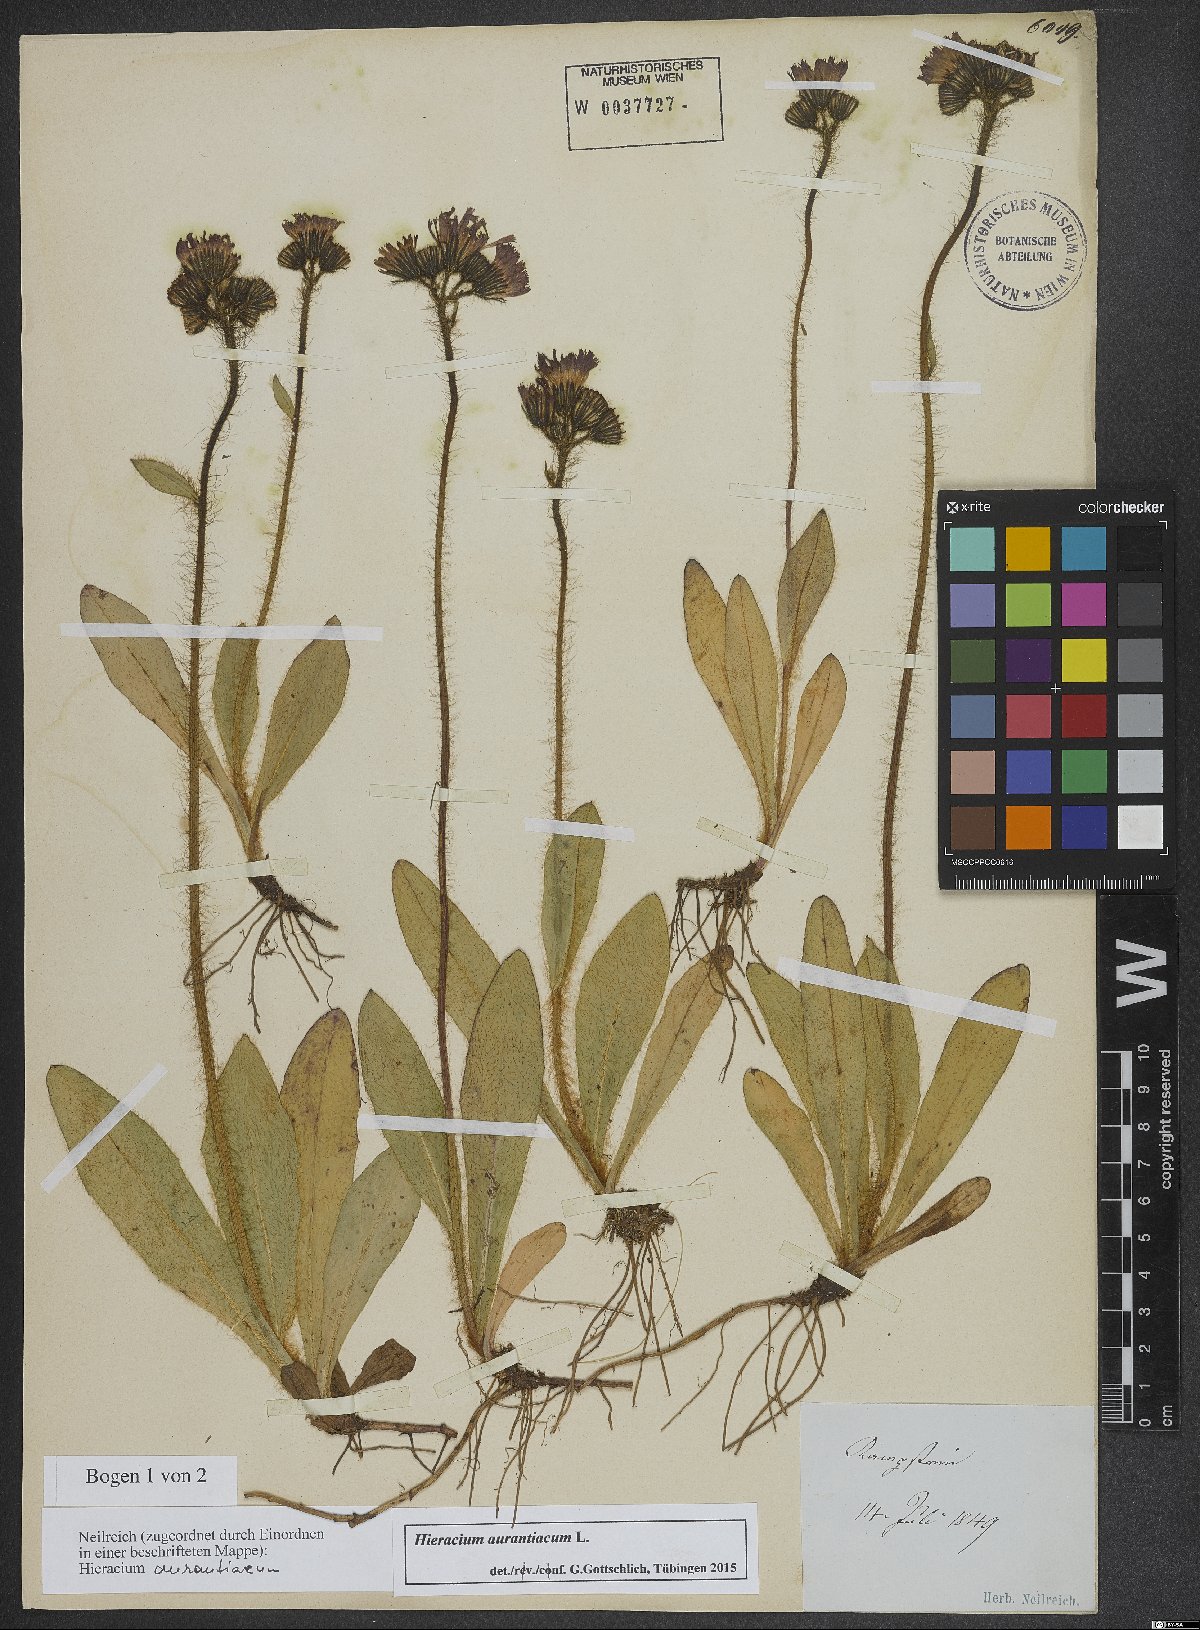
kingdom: Plantae
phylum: Tracheophyta
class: Magnoliopsida
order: Asterales
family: Asteraceae
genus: Pilosella
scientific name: Pilosella aurantiaca
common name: Fox-and-cubs
